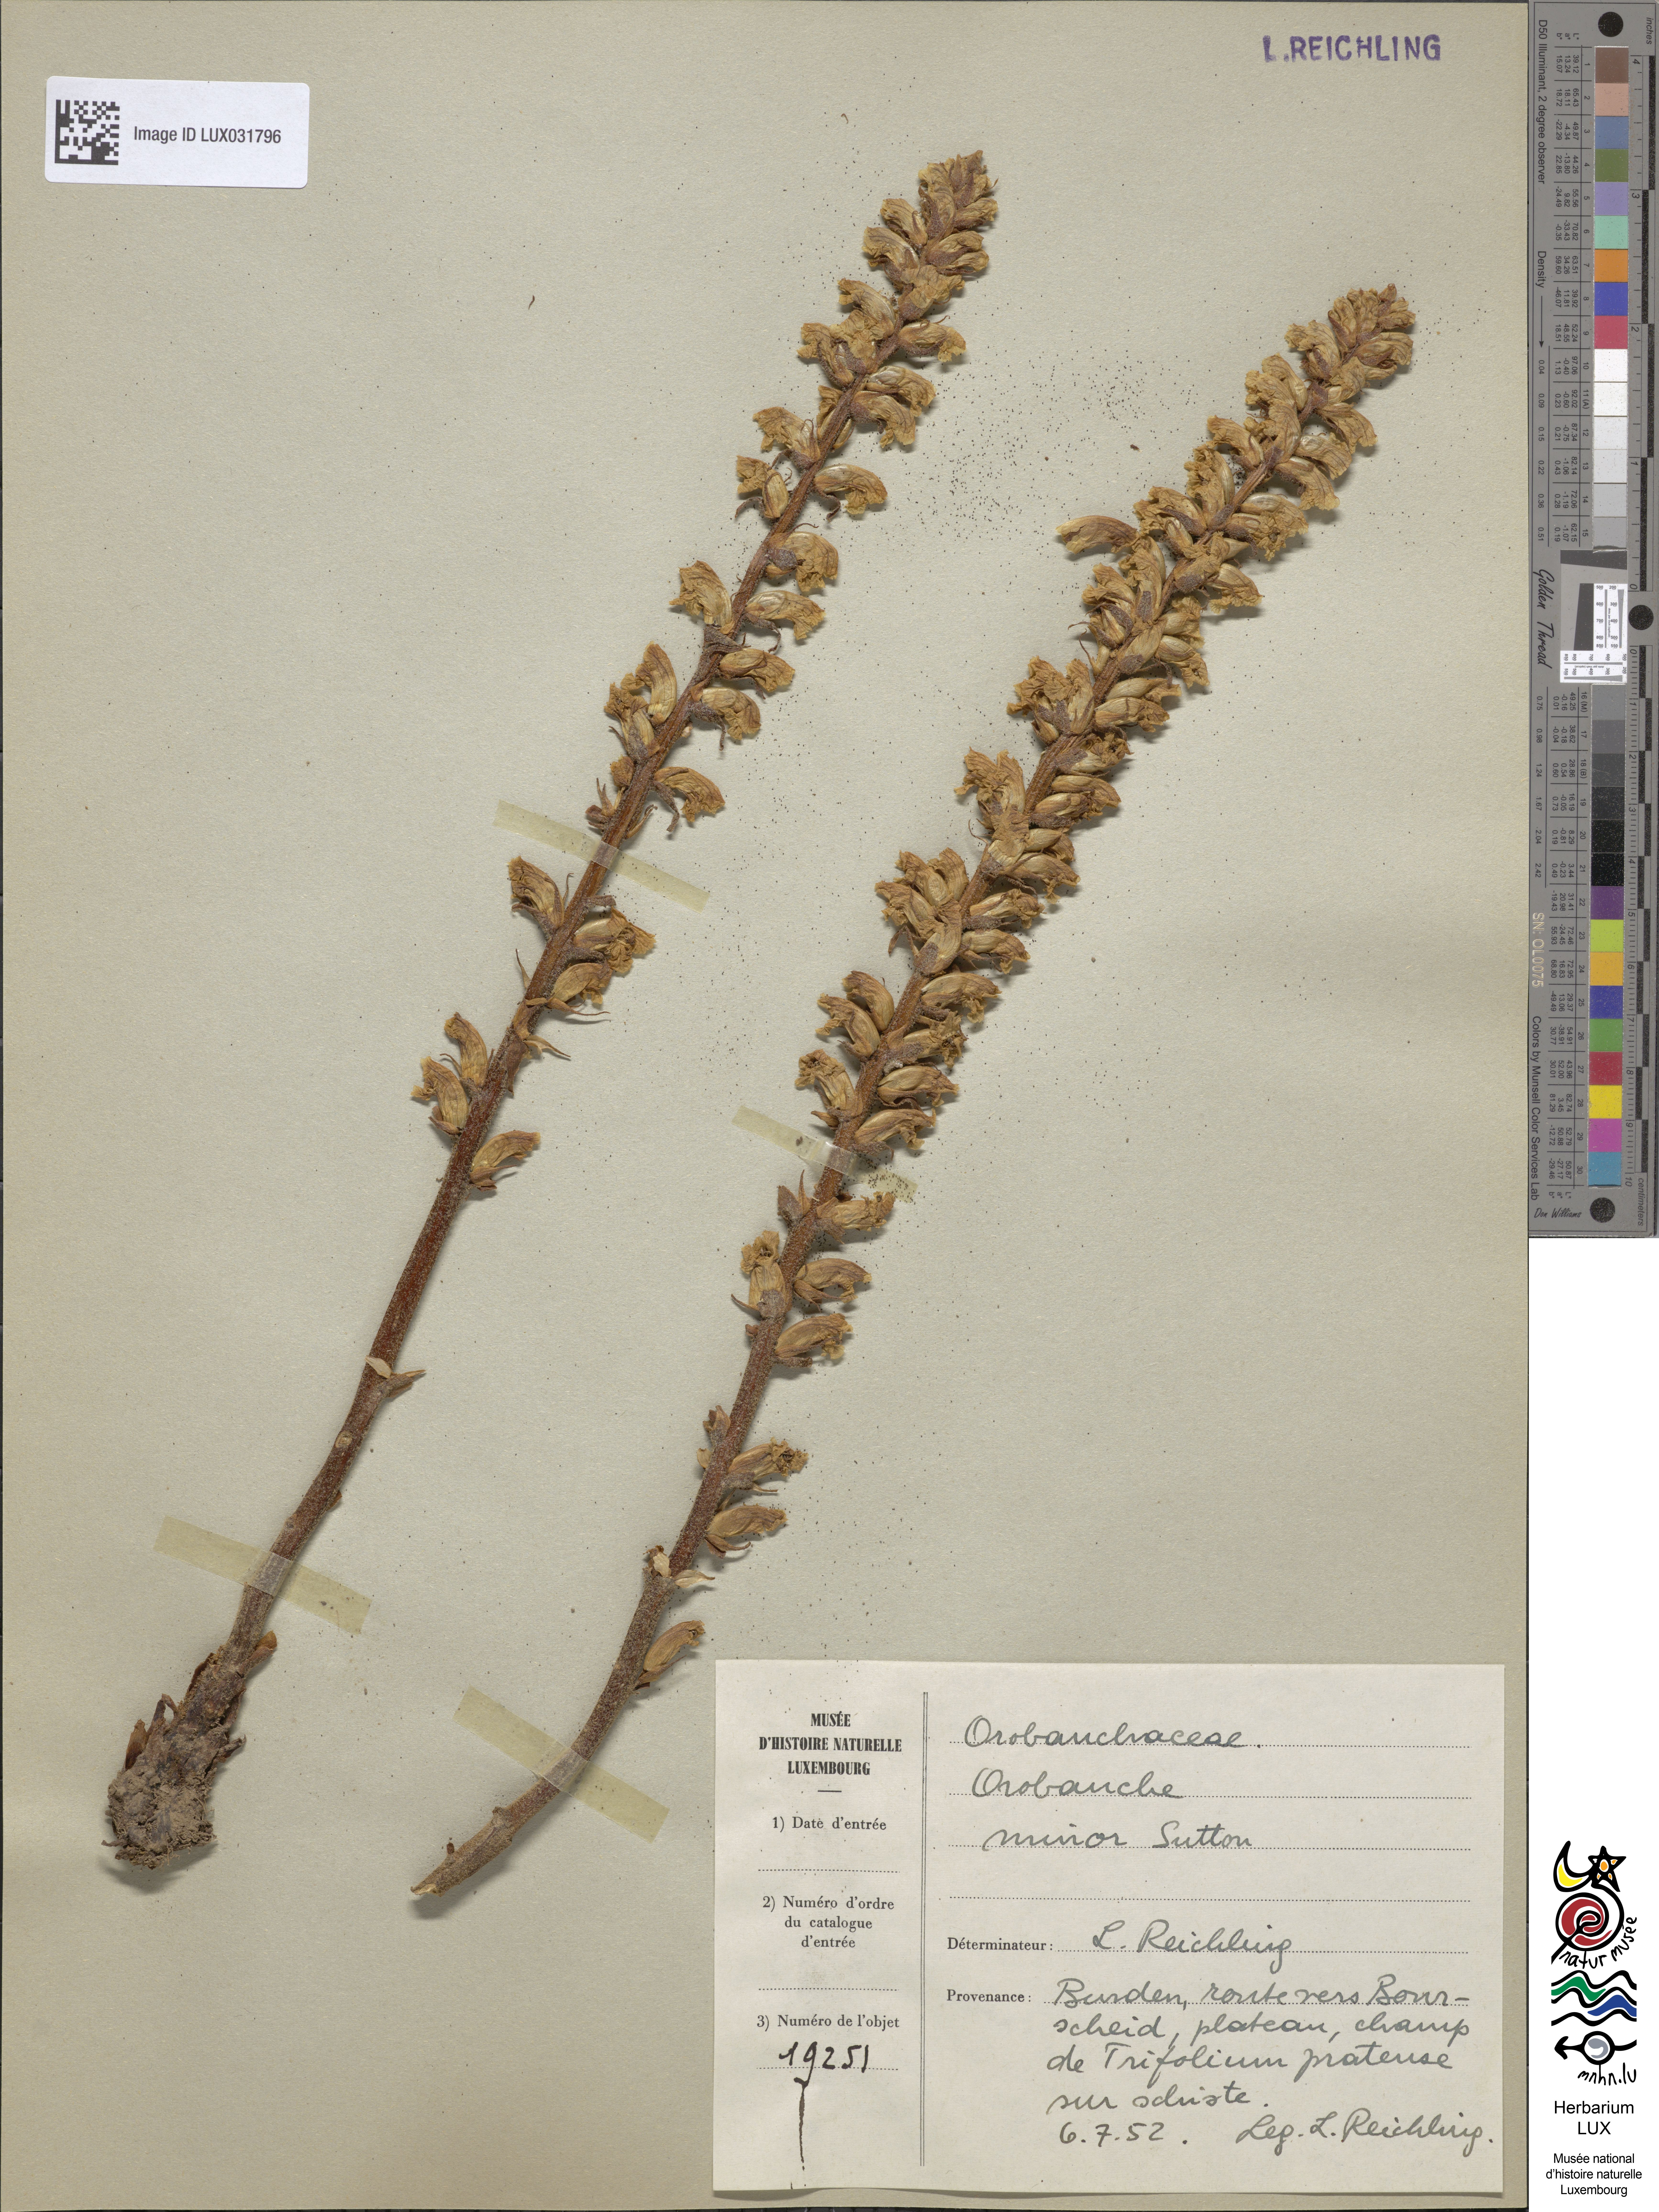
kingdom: Plantae
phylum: Tracheophyta
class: Magnoliopsida
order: Lamiales
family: Orobanchaceae
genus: Orobanche
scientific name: Orobanche minor
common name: Common broomrape
